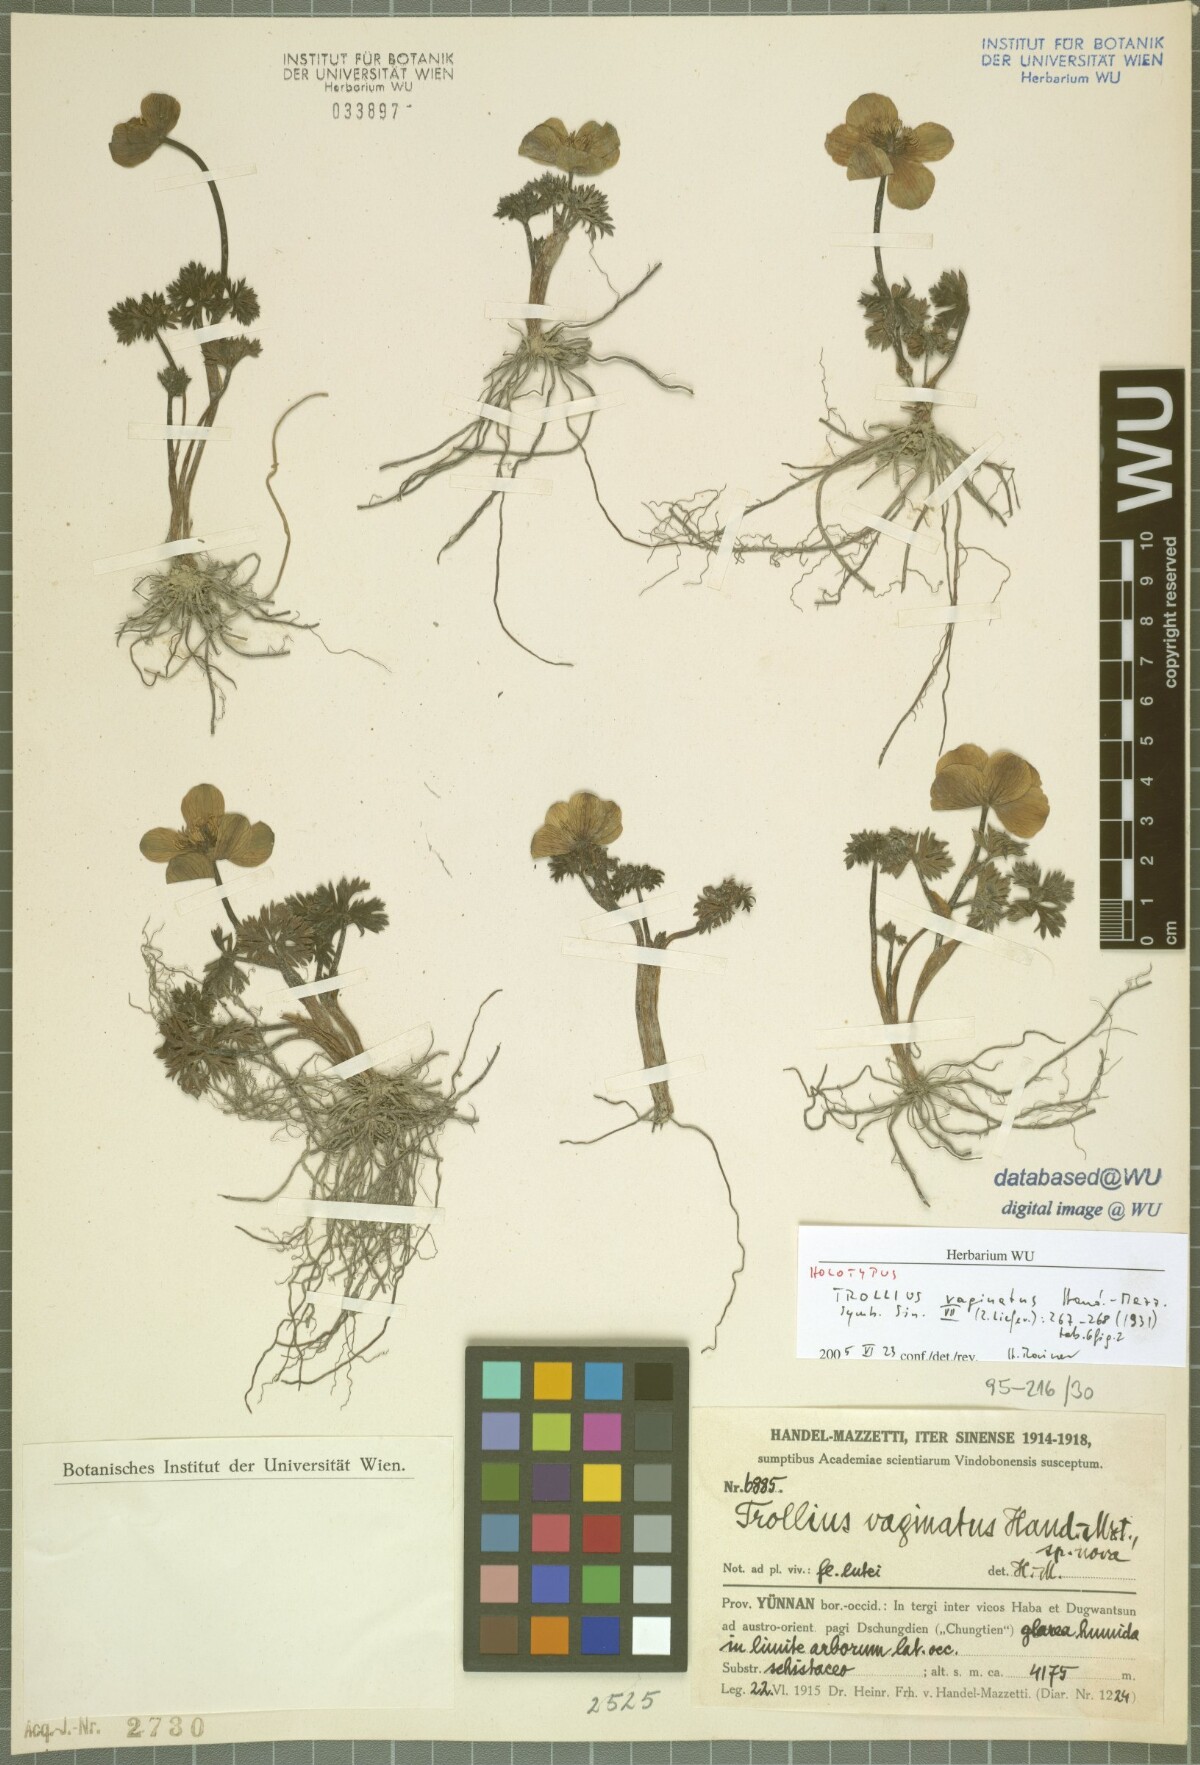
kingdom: Plantae
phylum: Tracheophyta
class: Magnoliopsida
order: Ranunculales
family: Ranunculaceae
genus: Trollius
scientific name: Trollius vaginatus
